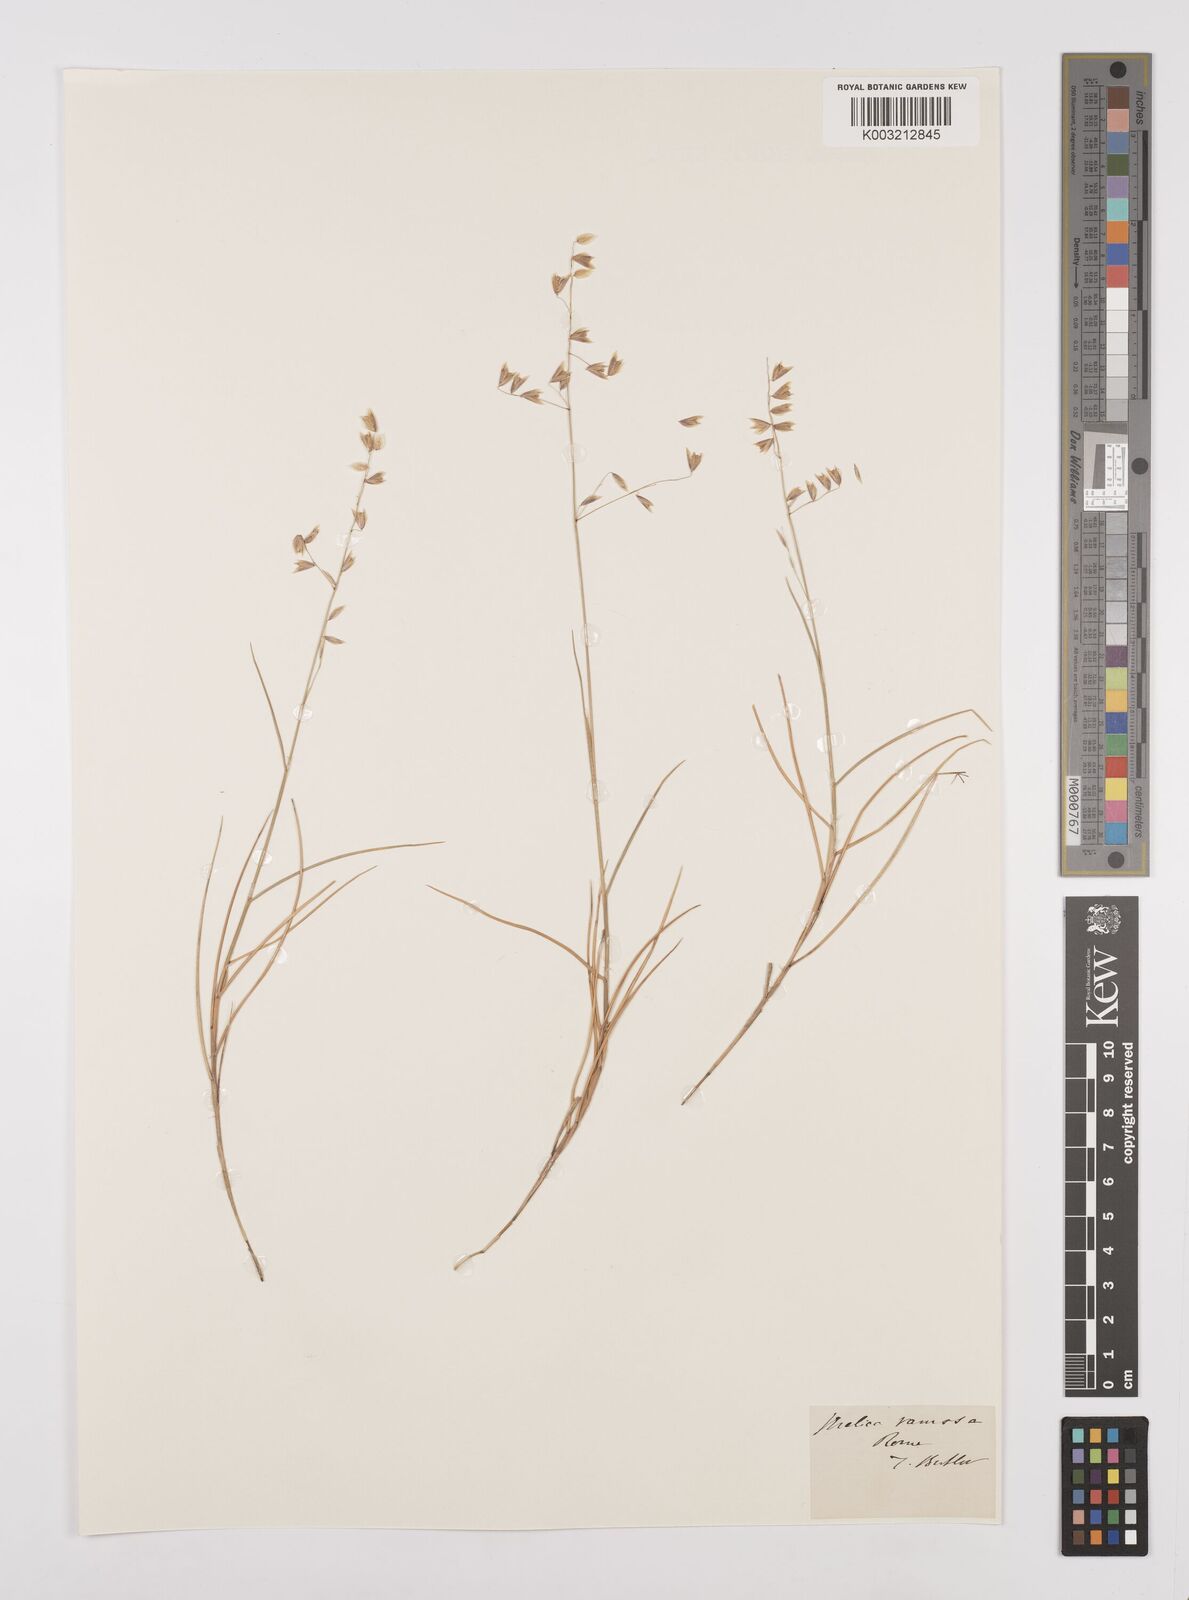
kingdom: Plantae
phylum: Tracheophyta
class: Liliopsida
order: Poales
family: Poaceae
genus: Melica
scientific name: Melica minuta
